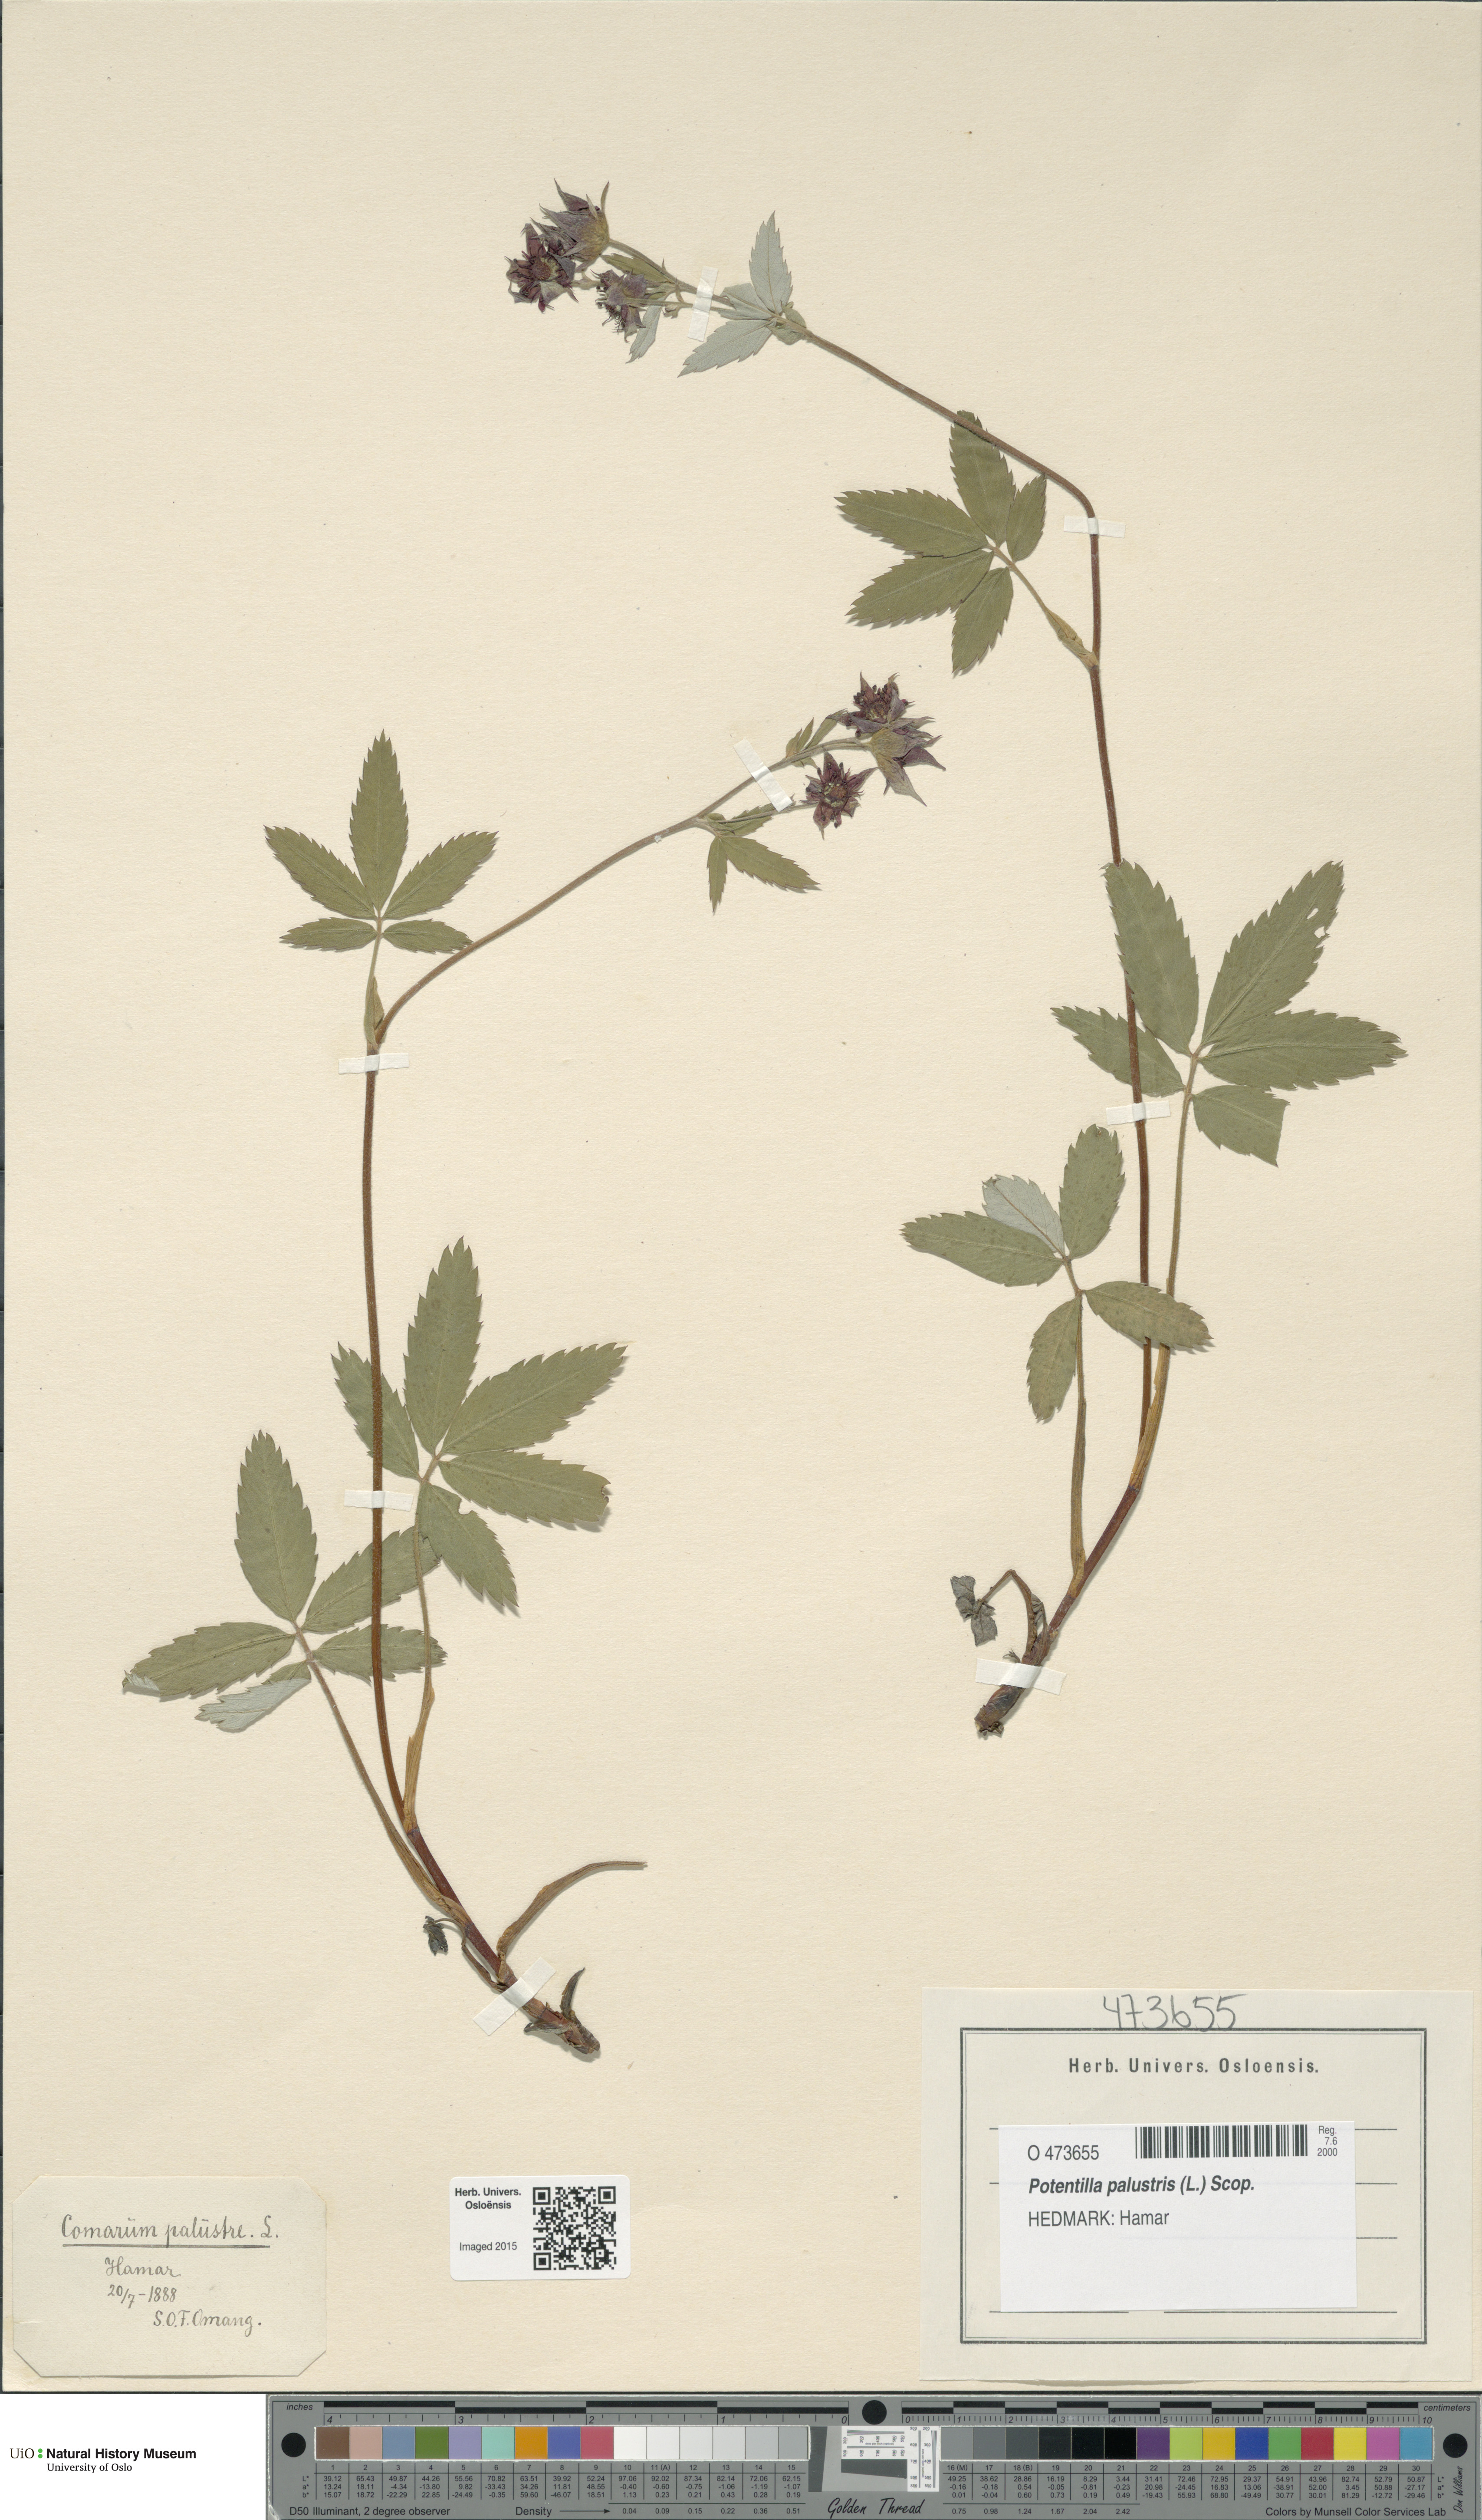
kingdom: Plantae
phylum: Tracheophyta
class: Magnoliopsida
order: Rosales
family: Rosaceae
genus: Comarum
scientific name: Comarum palustre
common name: Marsh cinquefoil
